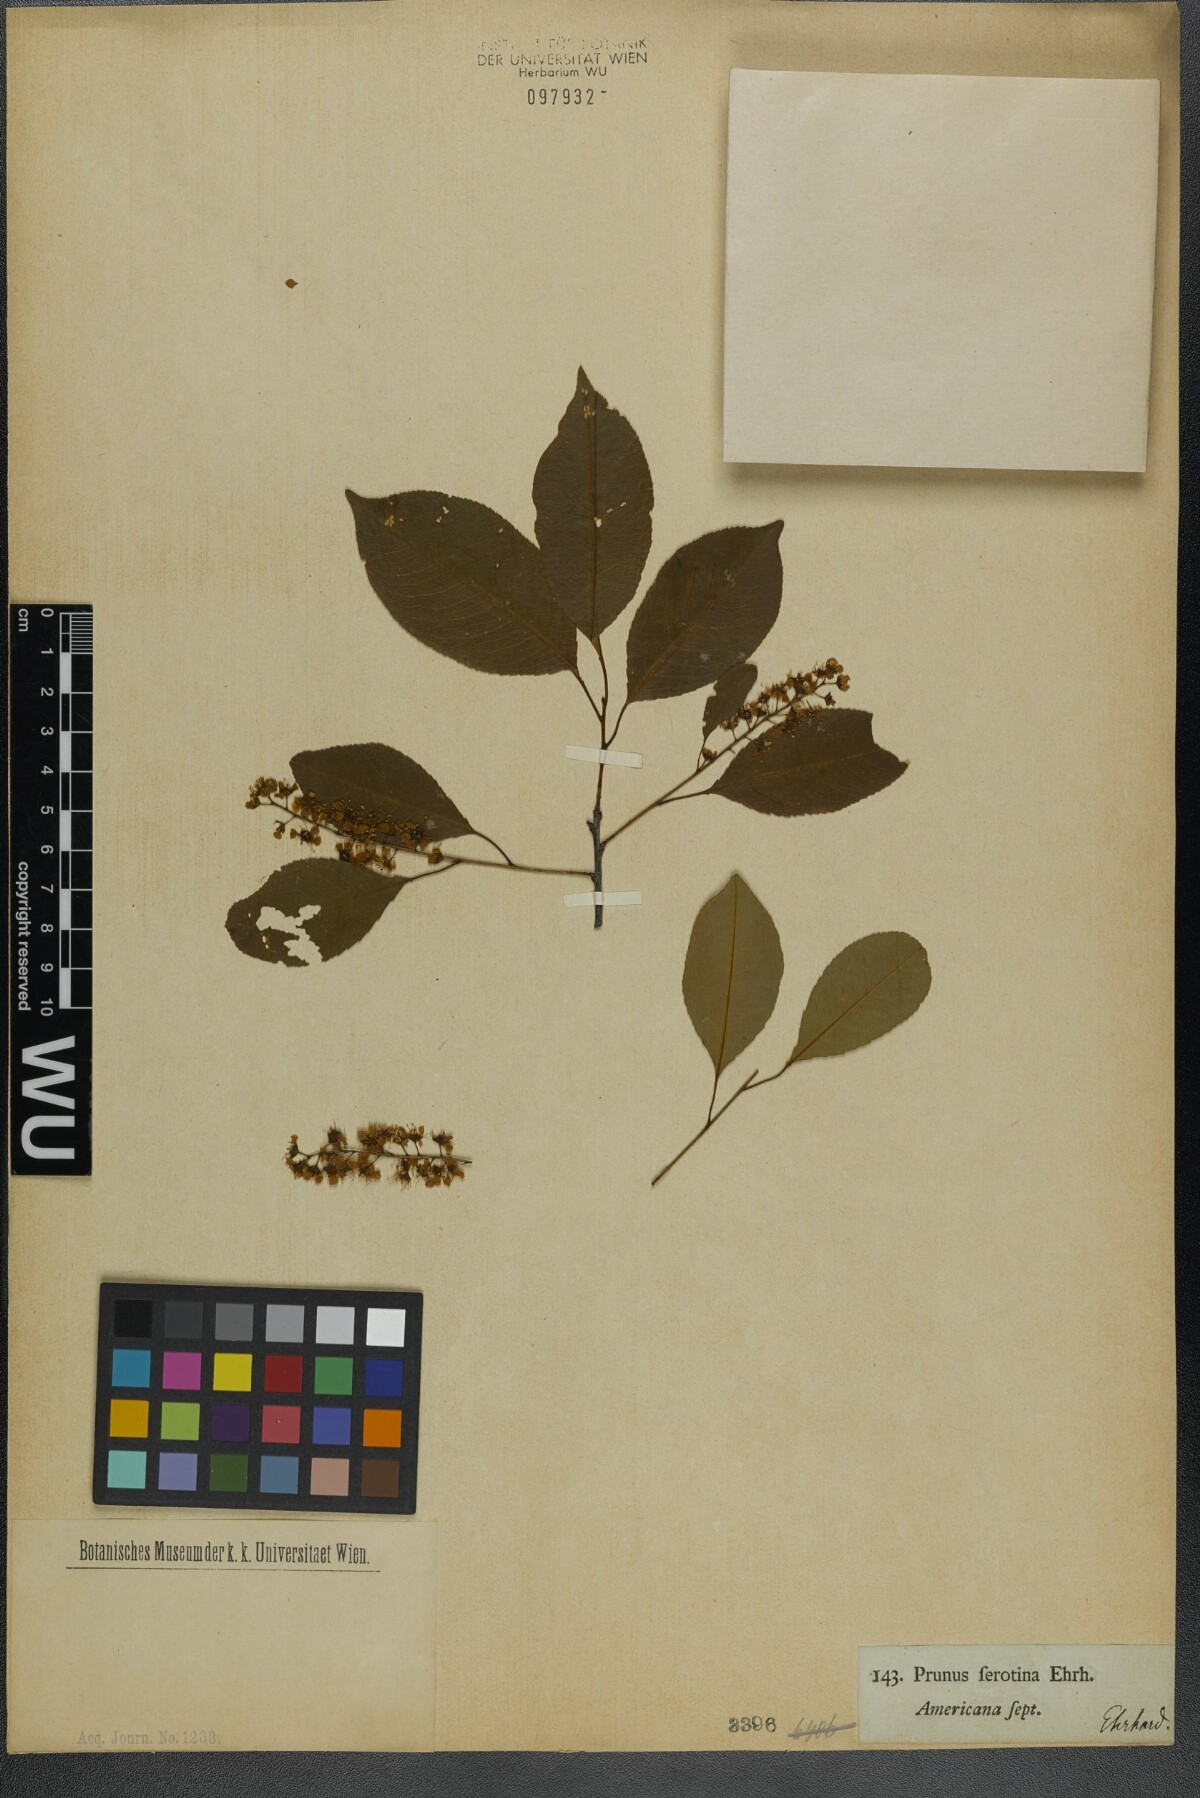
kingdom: Plantae
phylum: Tracheophyta
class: Magnoliopsida
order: Rosales
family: Rosaceae
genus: Prunus
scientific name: Prunus serotina
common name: Black cherry
